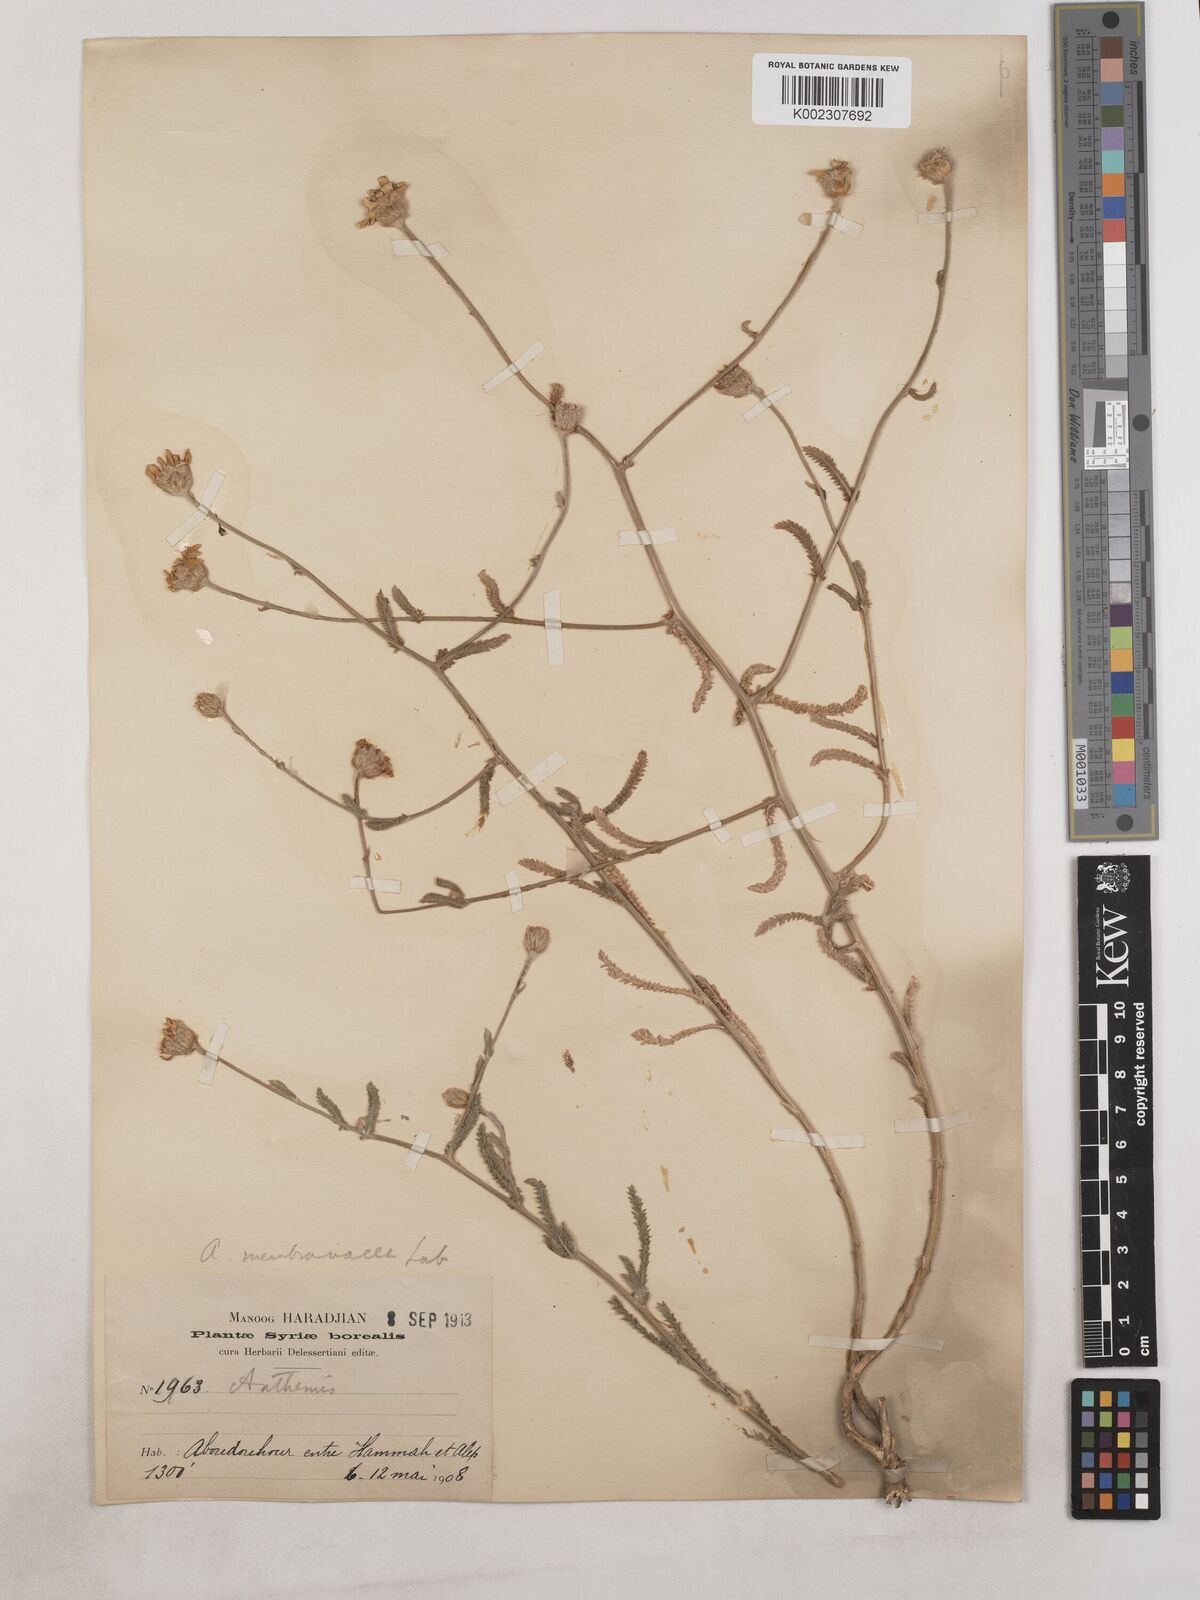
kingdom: Plantae
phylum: Tracheophyta
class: Magnoliopsida
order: Asterales
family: Asteraceae
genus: Achillea
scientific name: Achillea membranacea
